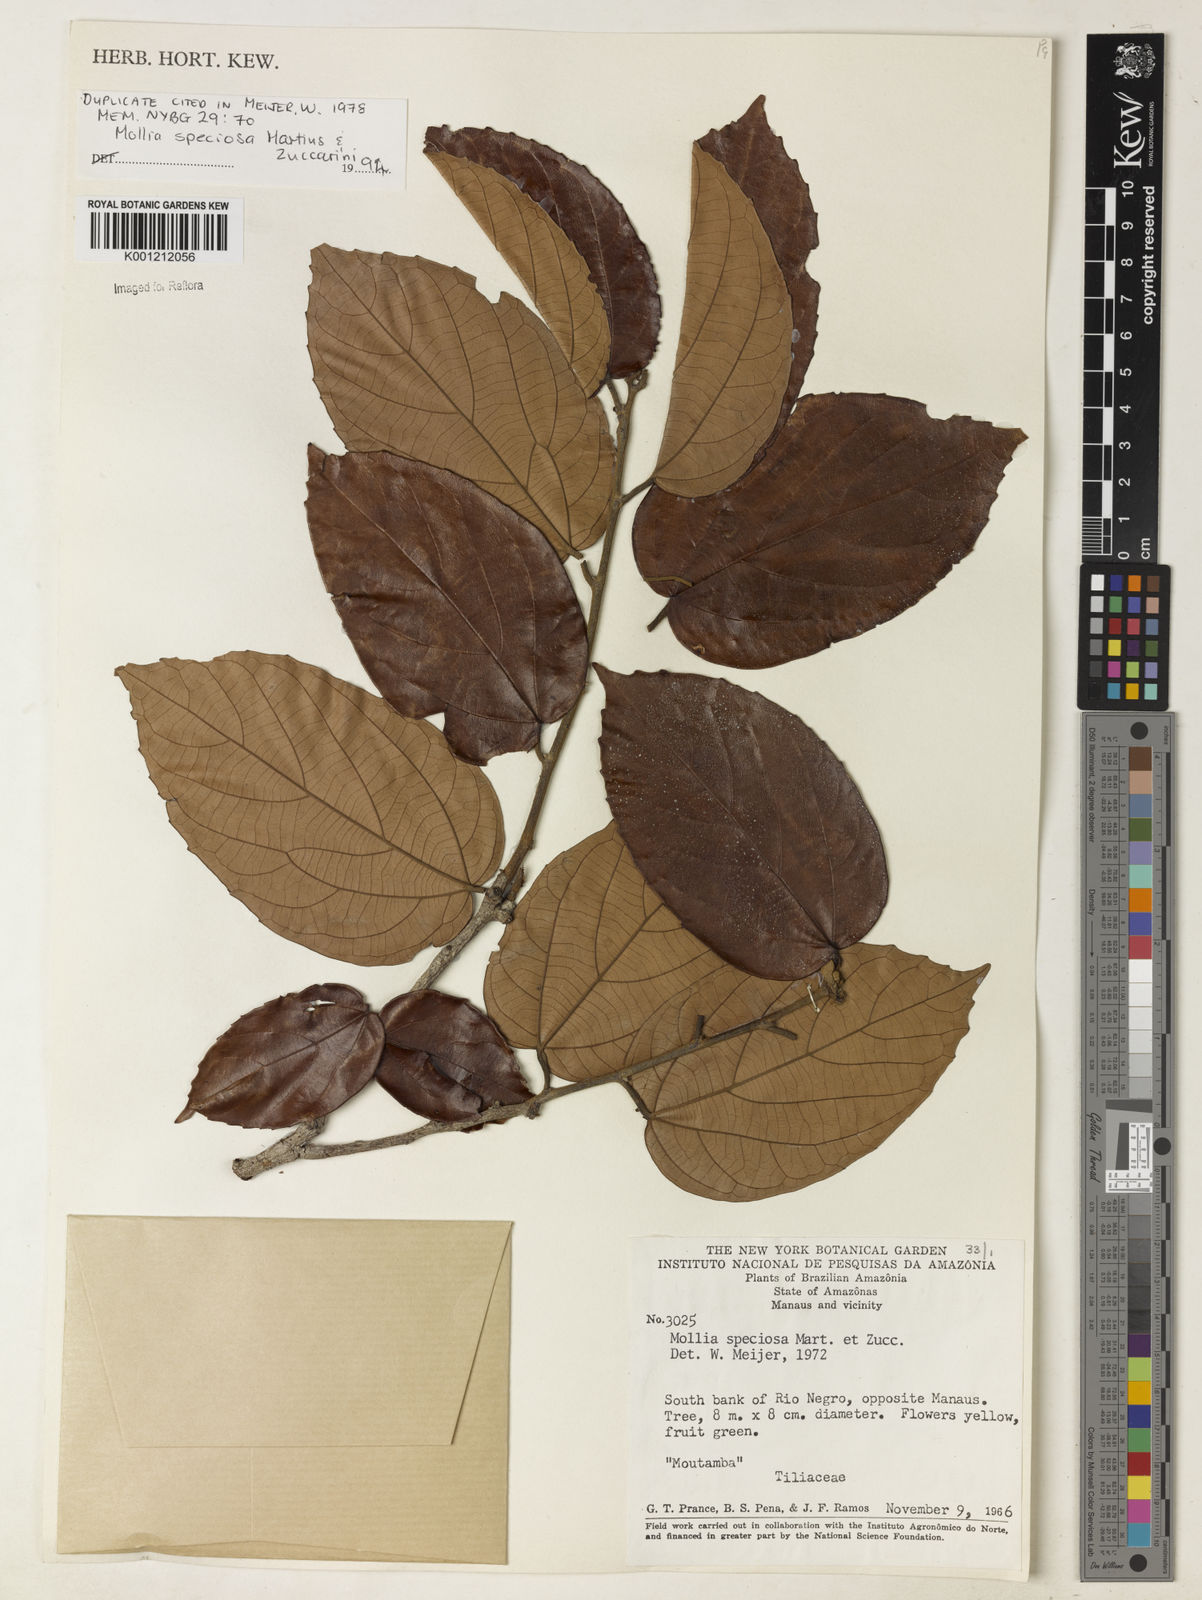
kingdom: Plantae
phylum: Tracheophyta
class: Magnoliopsida
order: Malvales
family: Malvaceae
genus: Mollia
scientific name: Mollia speciosa
